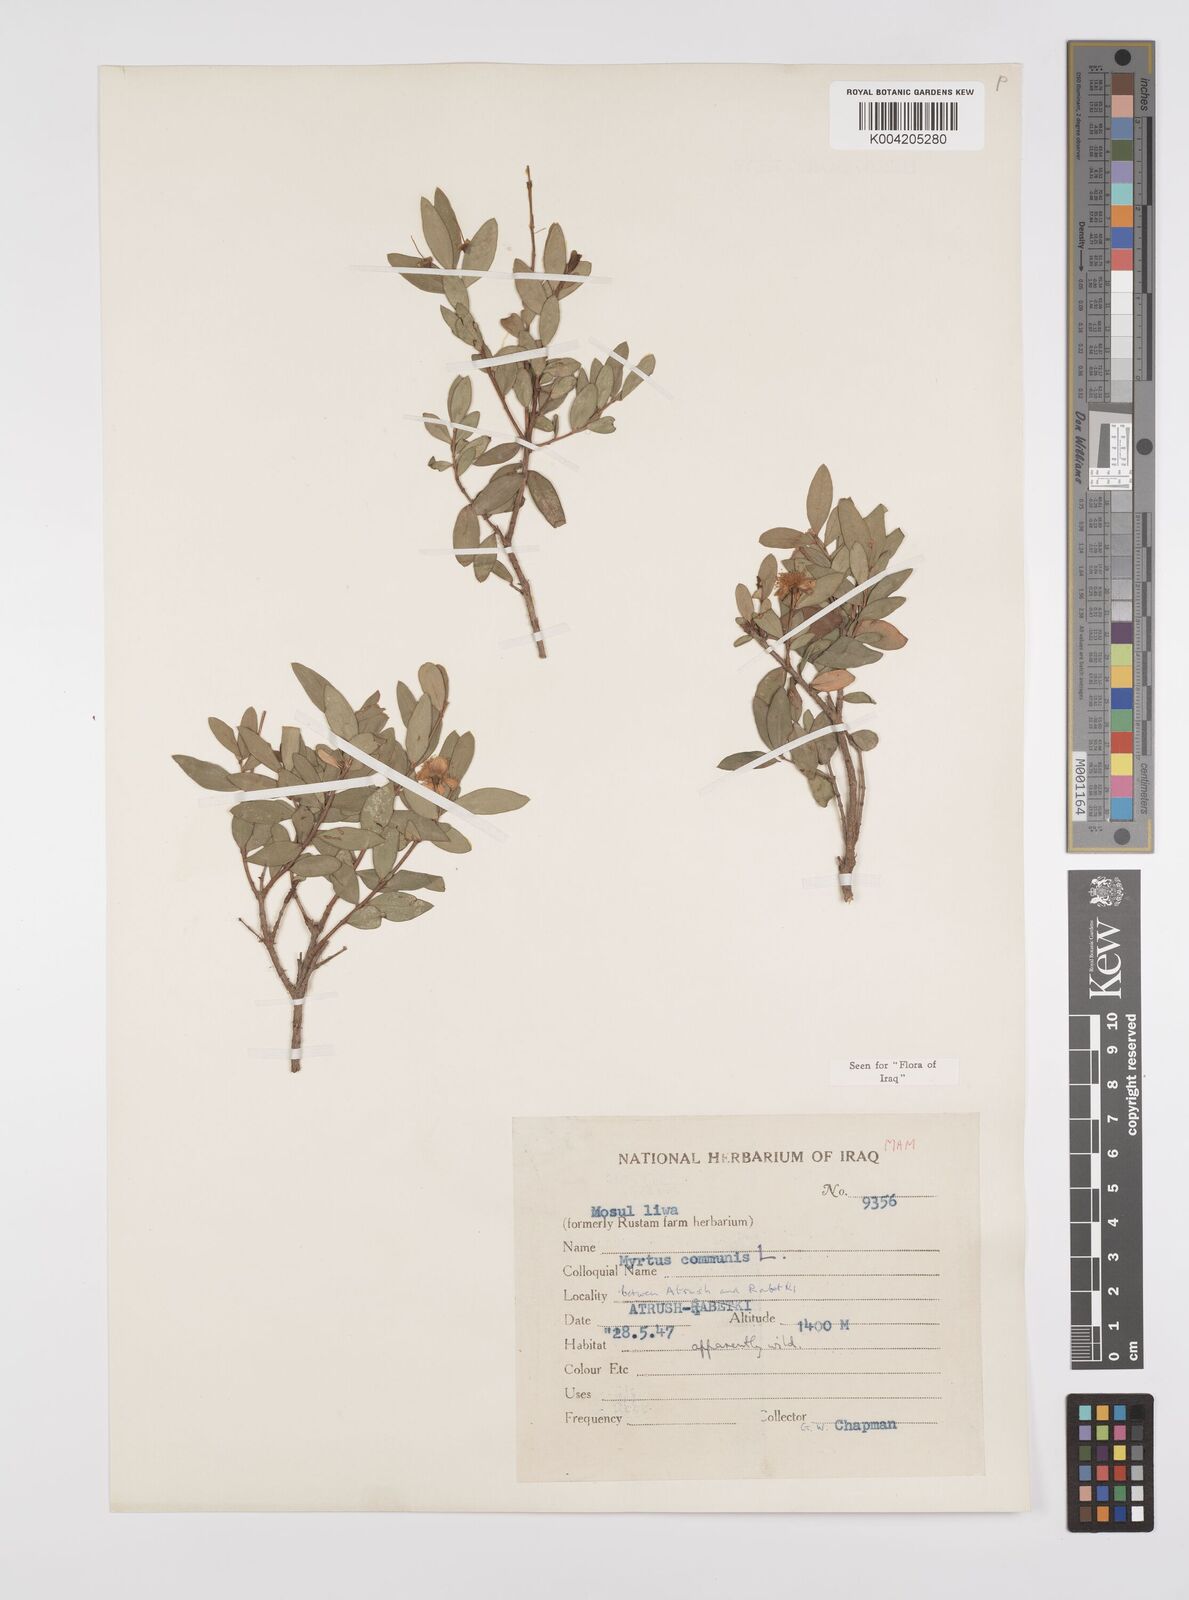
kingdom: Plantae
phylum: Tracheophyta
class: Magnoliopsida
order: Myrtales
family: Myrtaceae
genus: Myrtus
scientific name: Myrtus communis
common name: Myrtle
